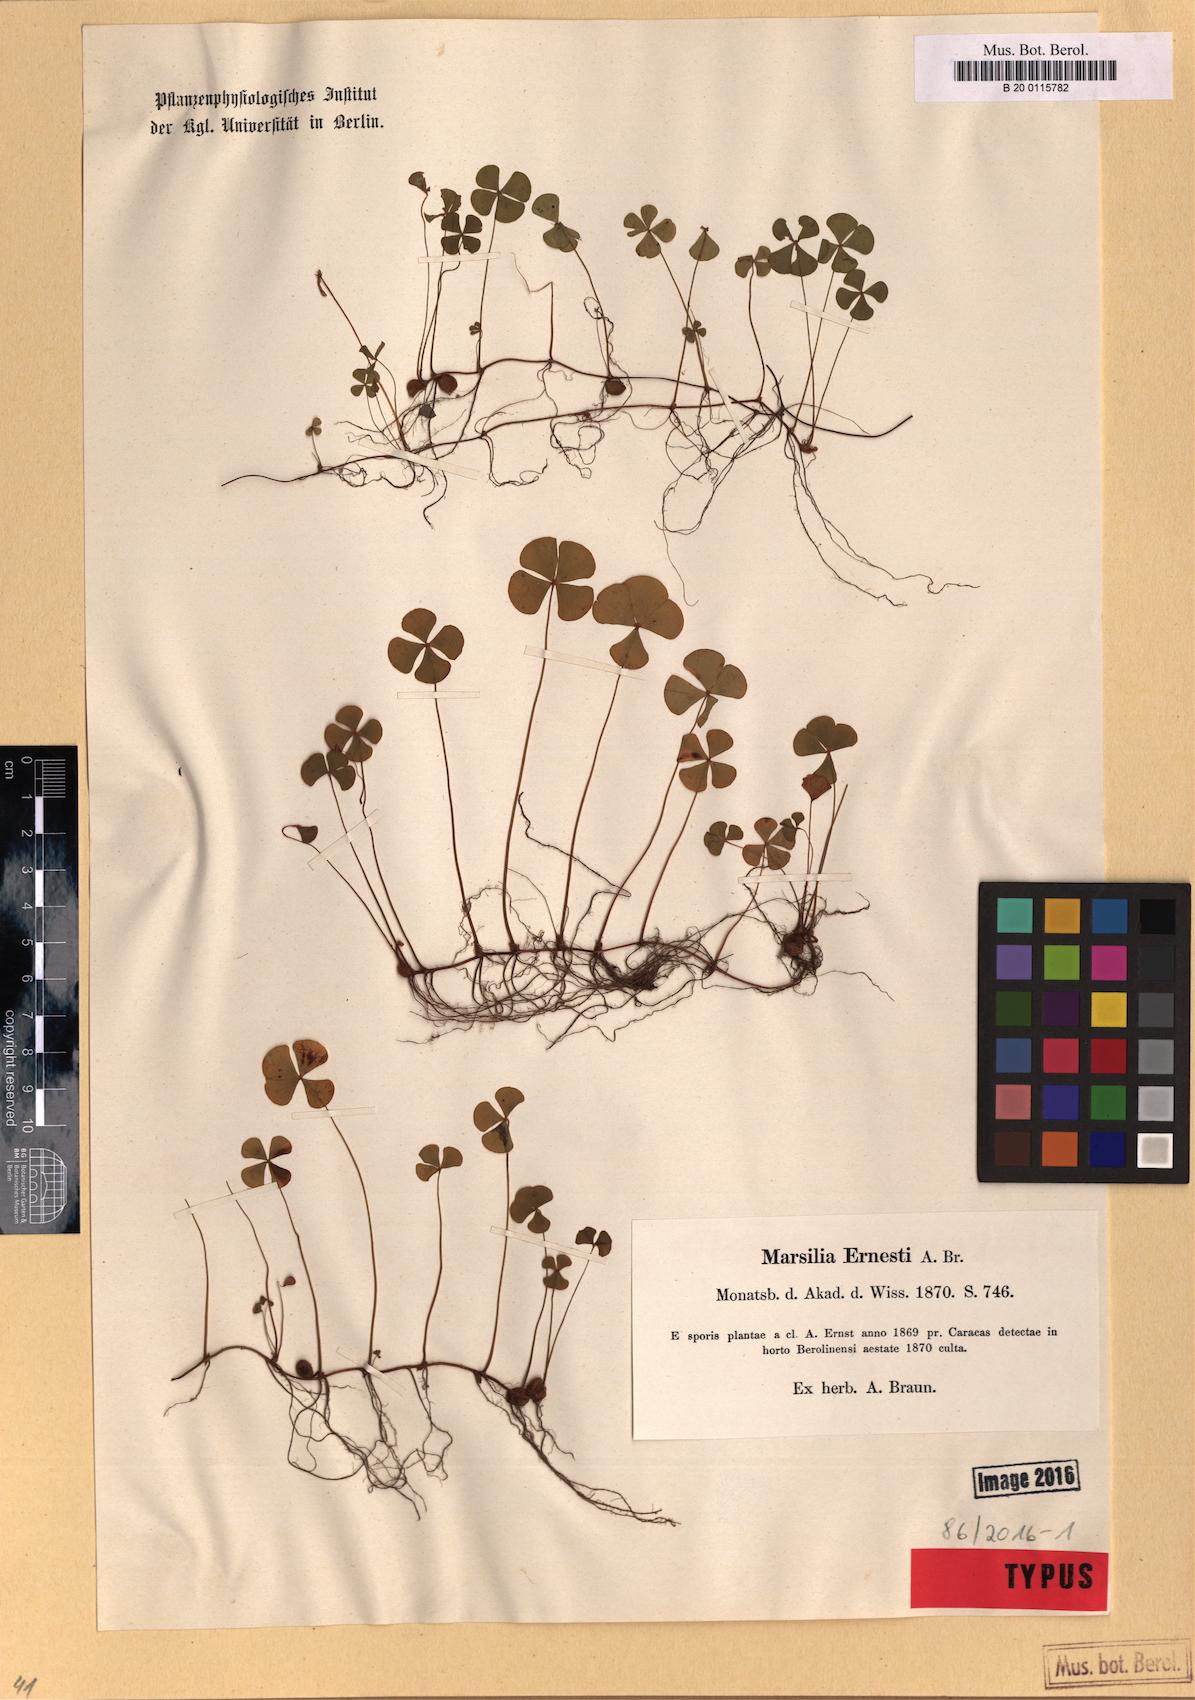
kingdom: Plantae
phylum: Tracheophyta
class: Polypodiopsida
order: Salviniales
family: Marsileaceae
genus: Marsilea
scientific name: Marsilea ancylopoda
